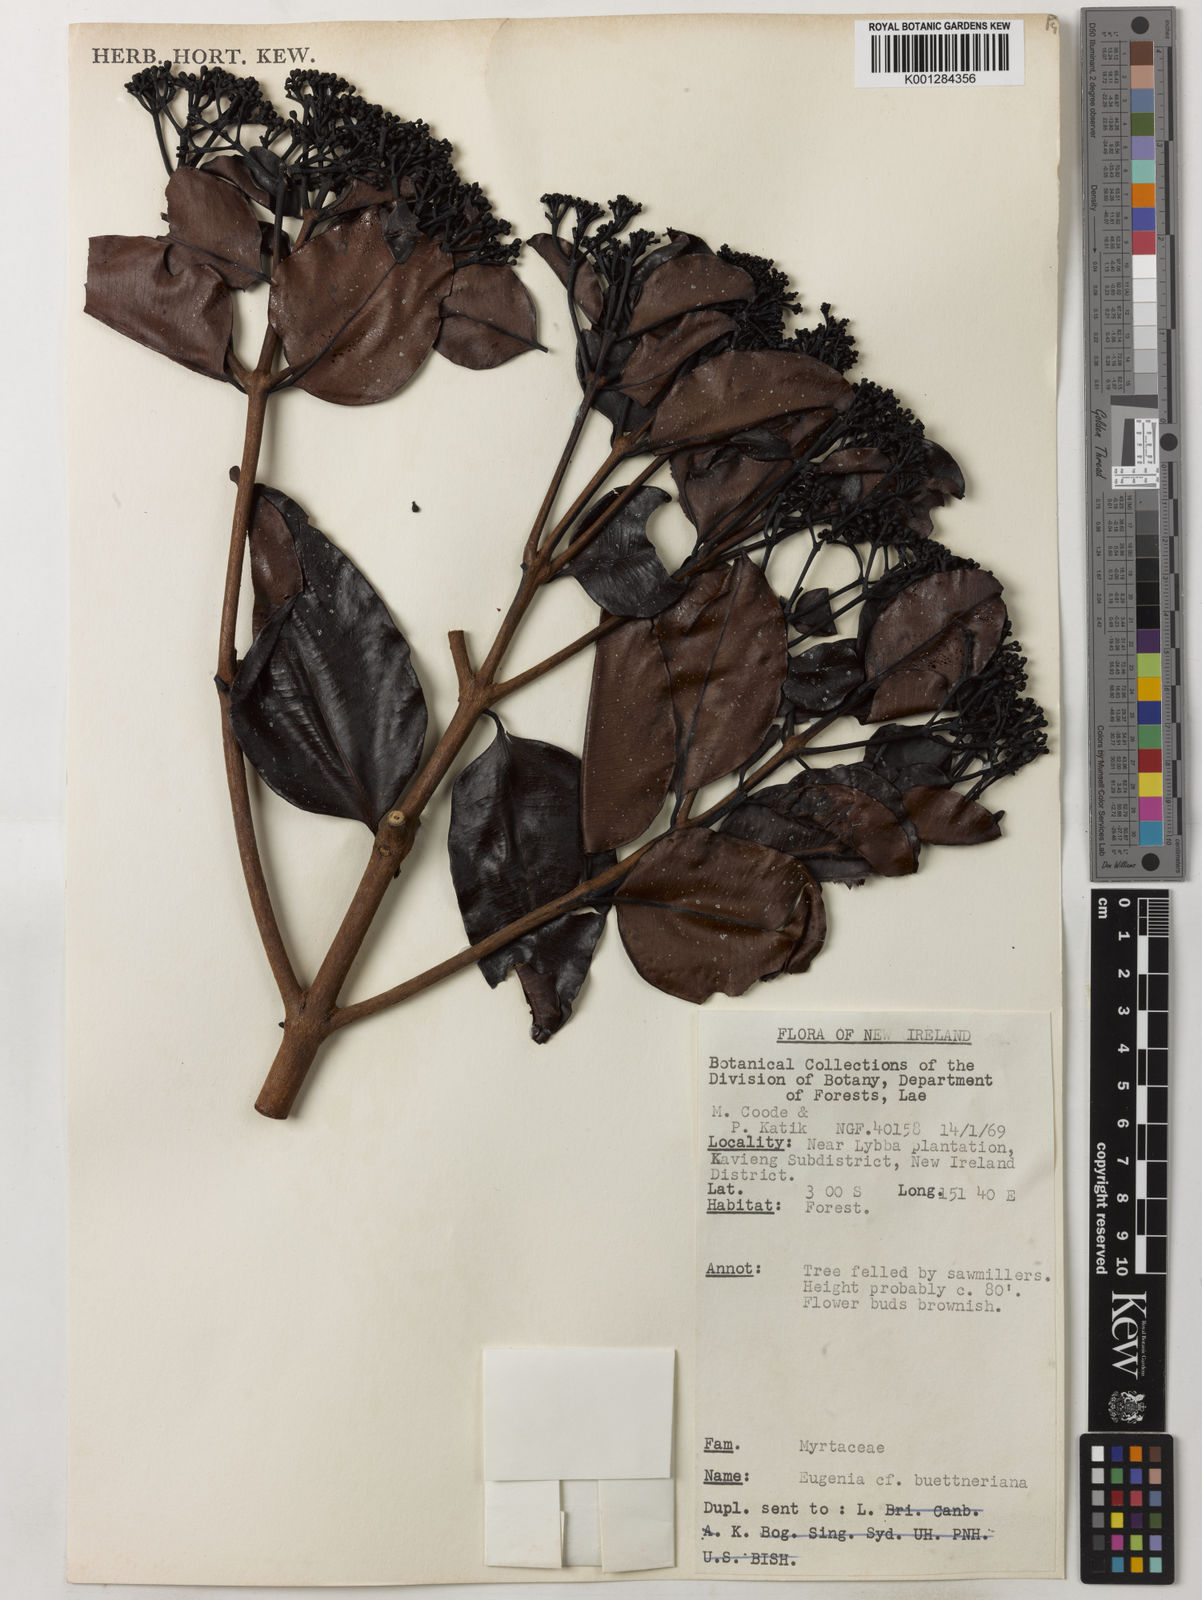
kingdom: Plantae
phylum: Tracheophyta
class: Magnoliopsida
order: Myrtales
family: Myrtaceae
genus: Syzygium
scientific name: Syzygium buettnerianum
